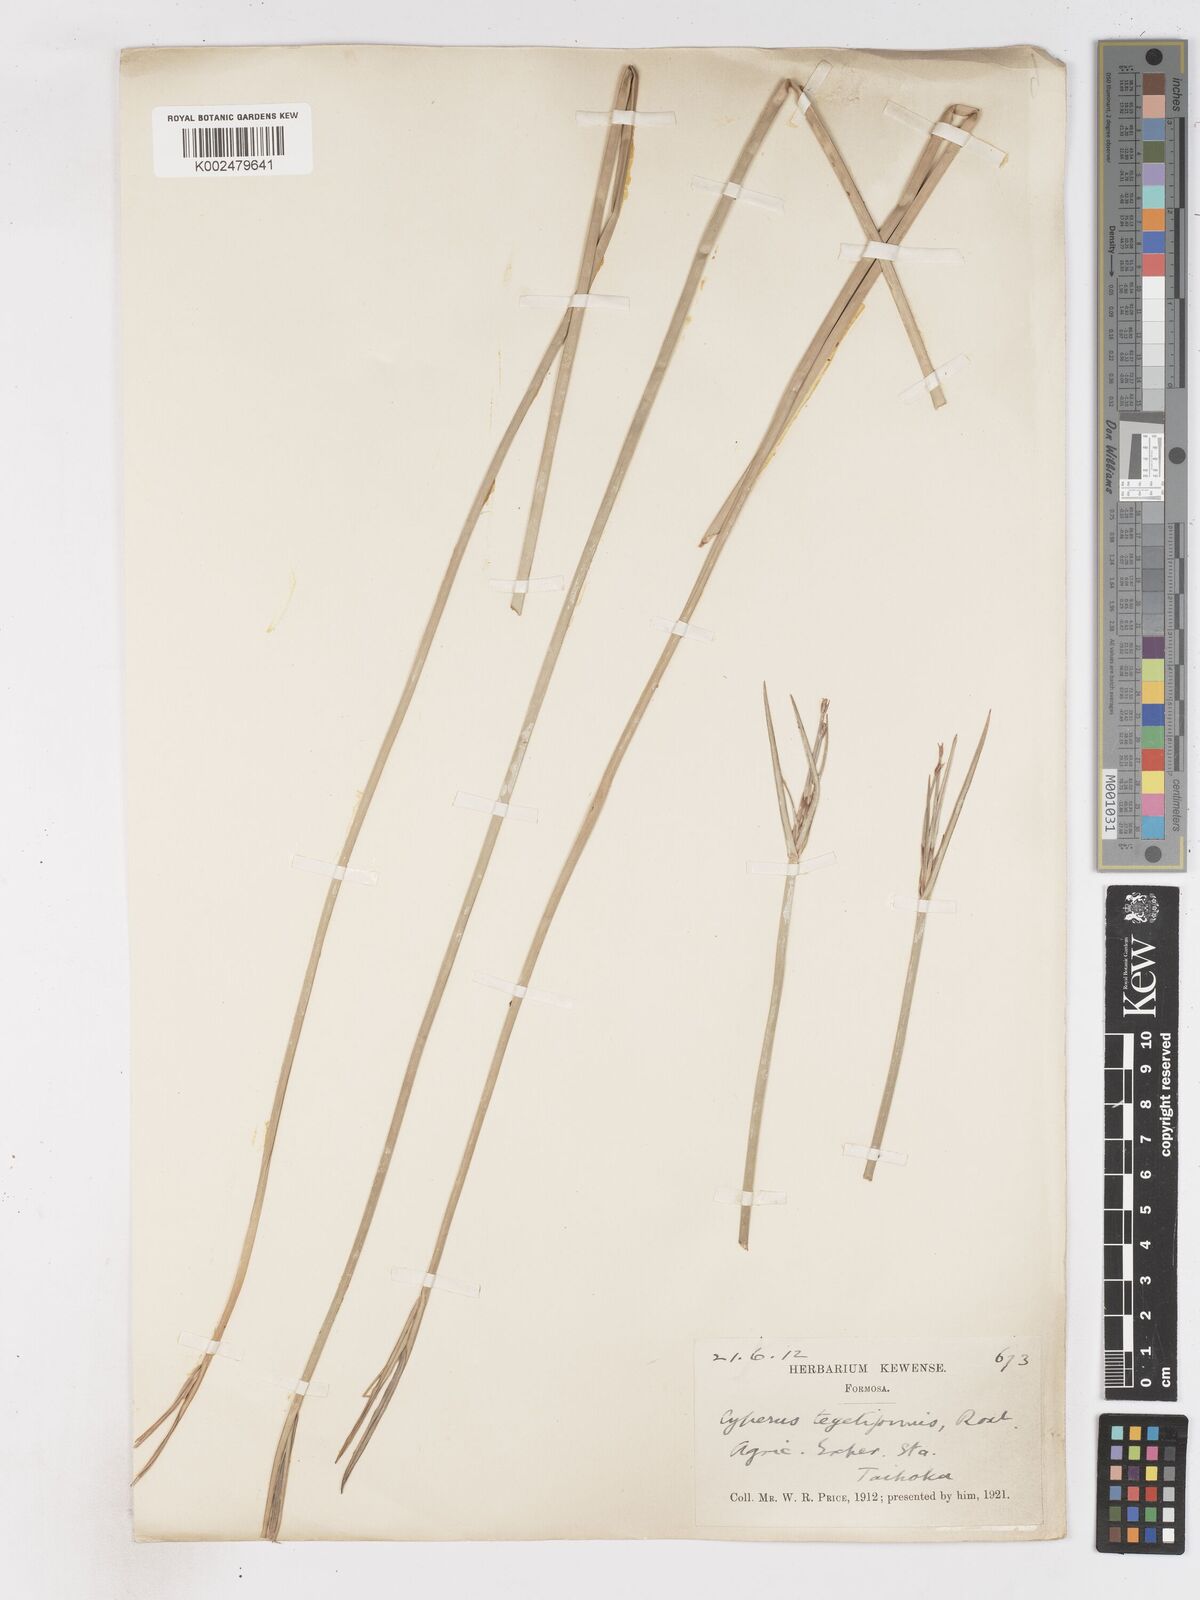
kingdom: Plantae
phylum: Tracheophyta
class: Liliopsida
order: Poales
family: Cyperaceae
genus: Cyperus
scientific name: Cyperus corymbosus
